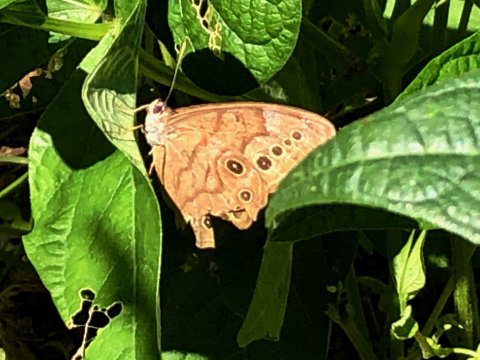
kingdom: Animalia
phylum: Arthropoda
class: Insecta
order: Lepidoptera
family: Nymphalidae
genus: Lethe
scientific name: Lethe anthedon
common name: Northern Pearly-Eye
